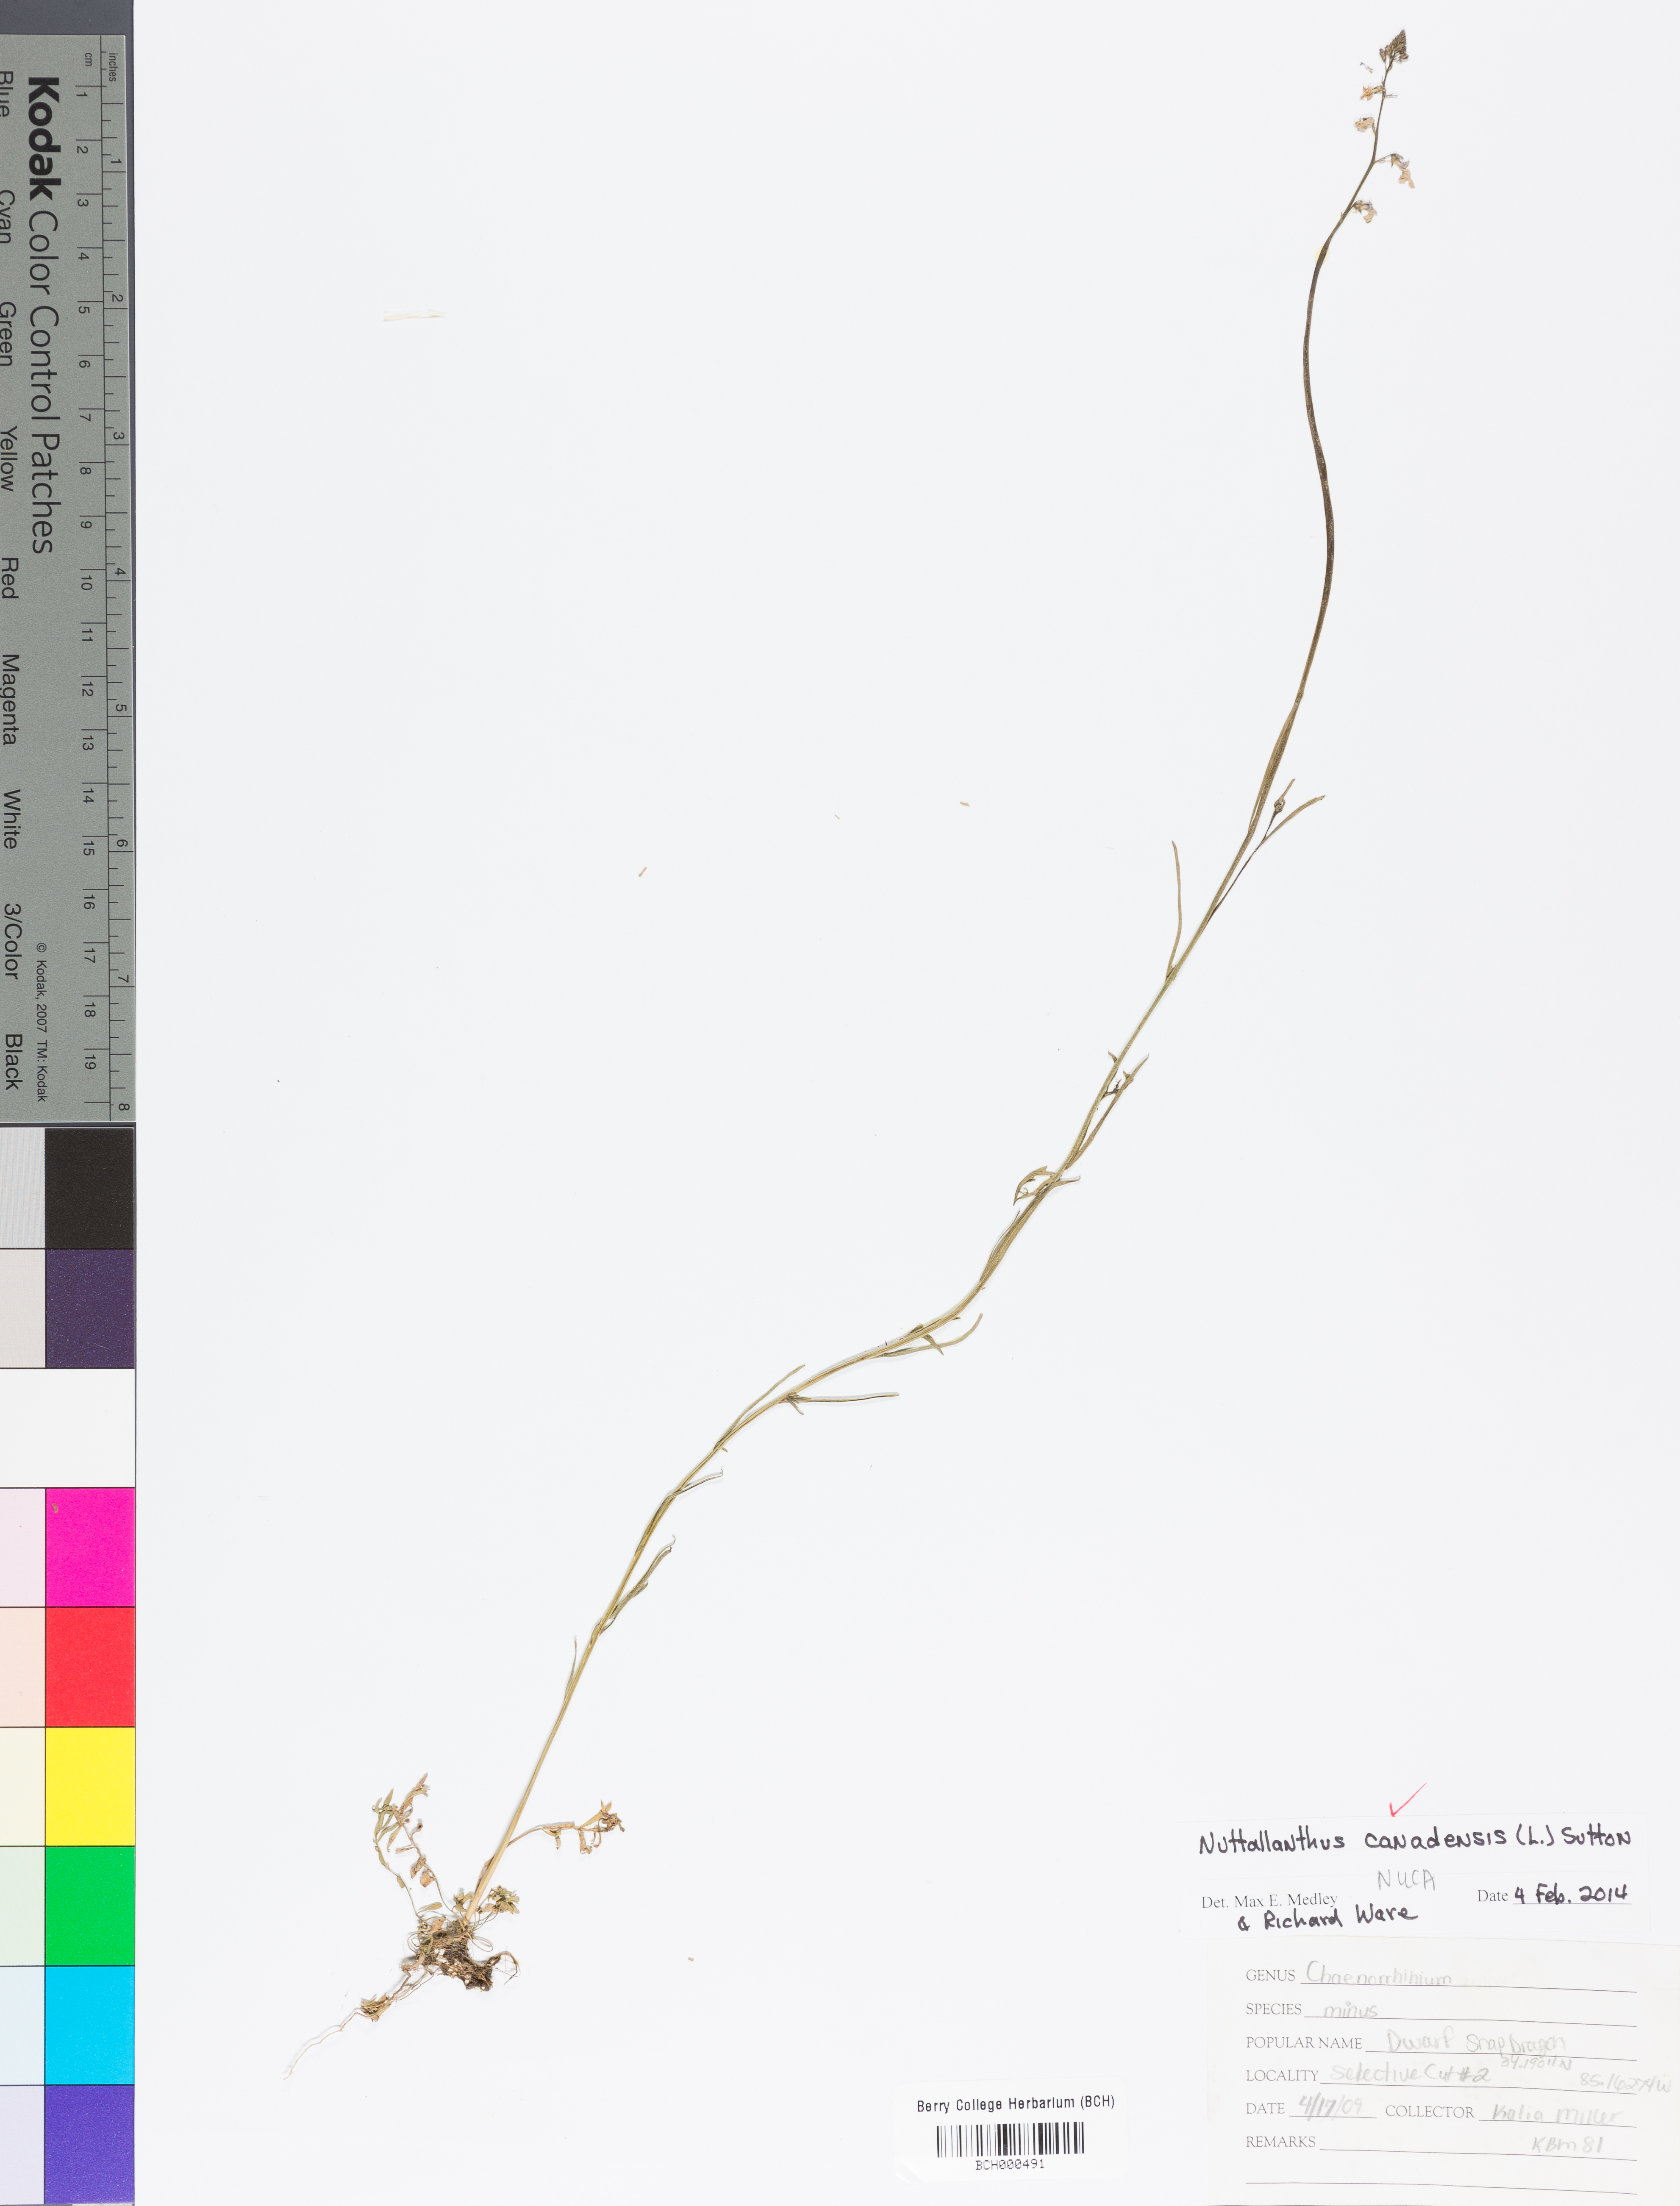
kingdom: Plantae
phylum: Tracheophyta
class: Magnoliopsida
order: Lamiales
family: Plantaginaceae
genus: Nuttallanthus
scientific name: Nuttallanthus canadensis
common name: Blue toadflax
